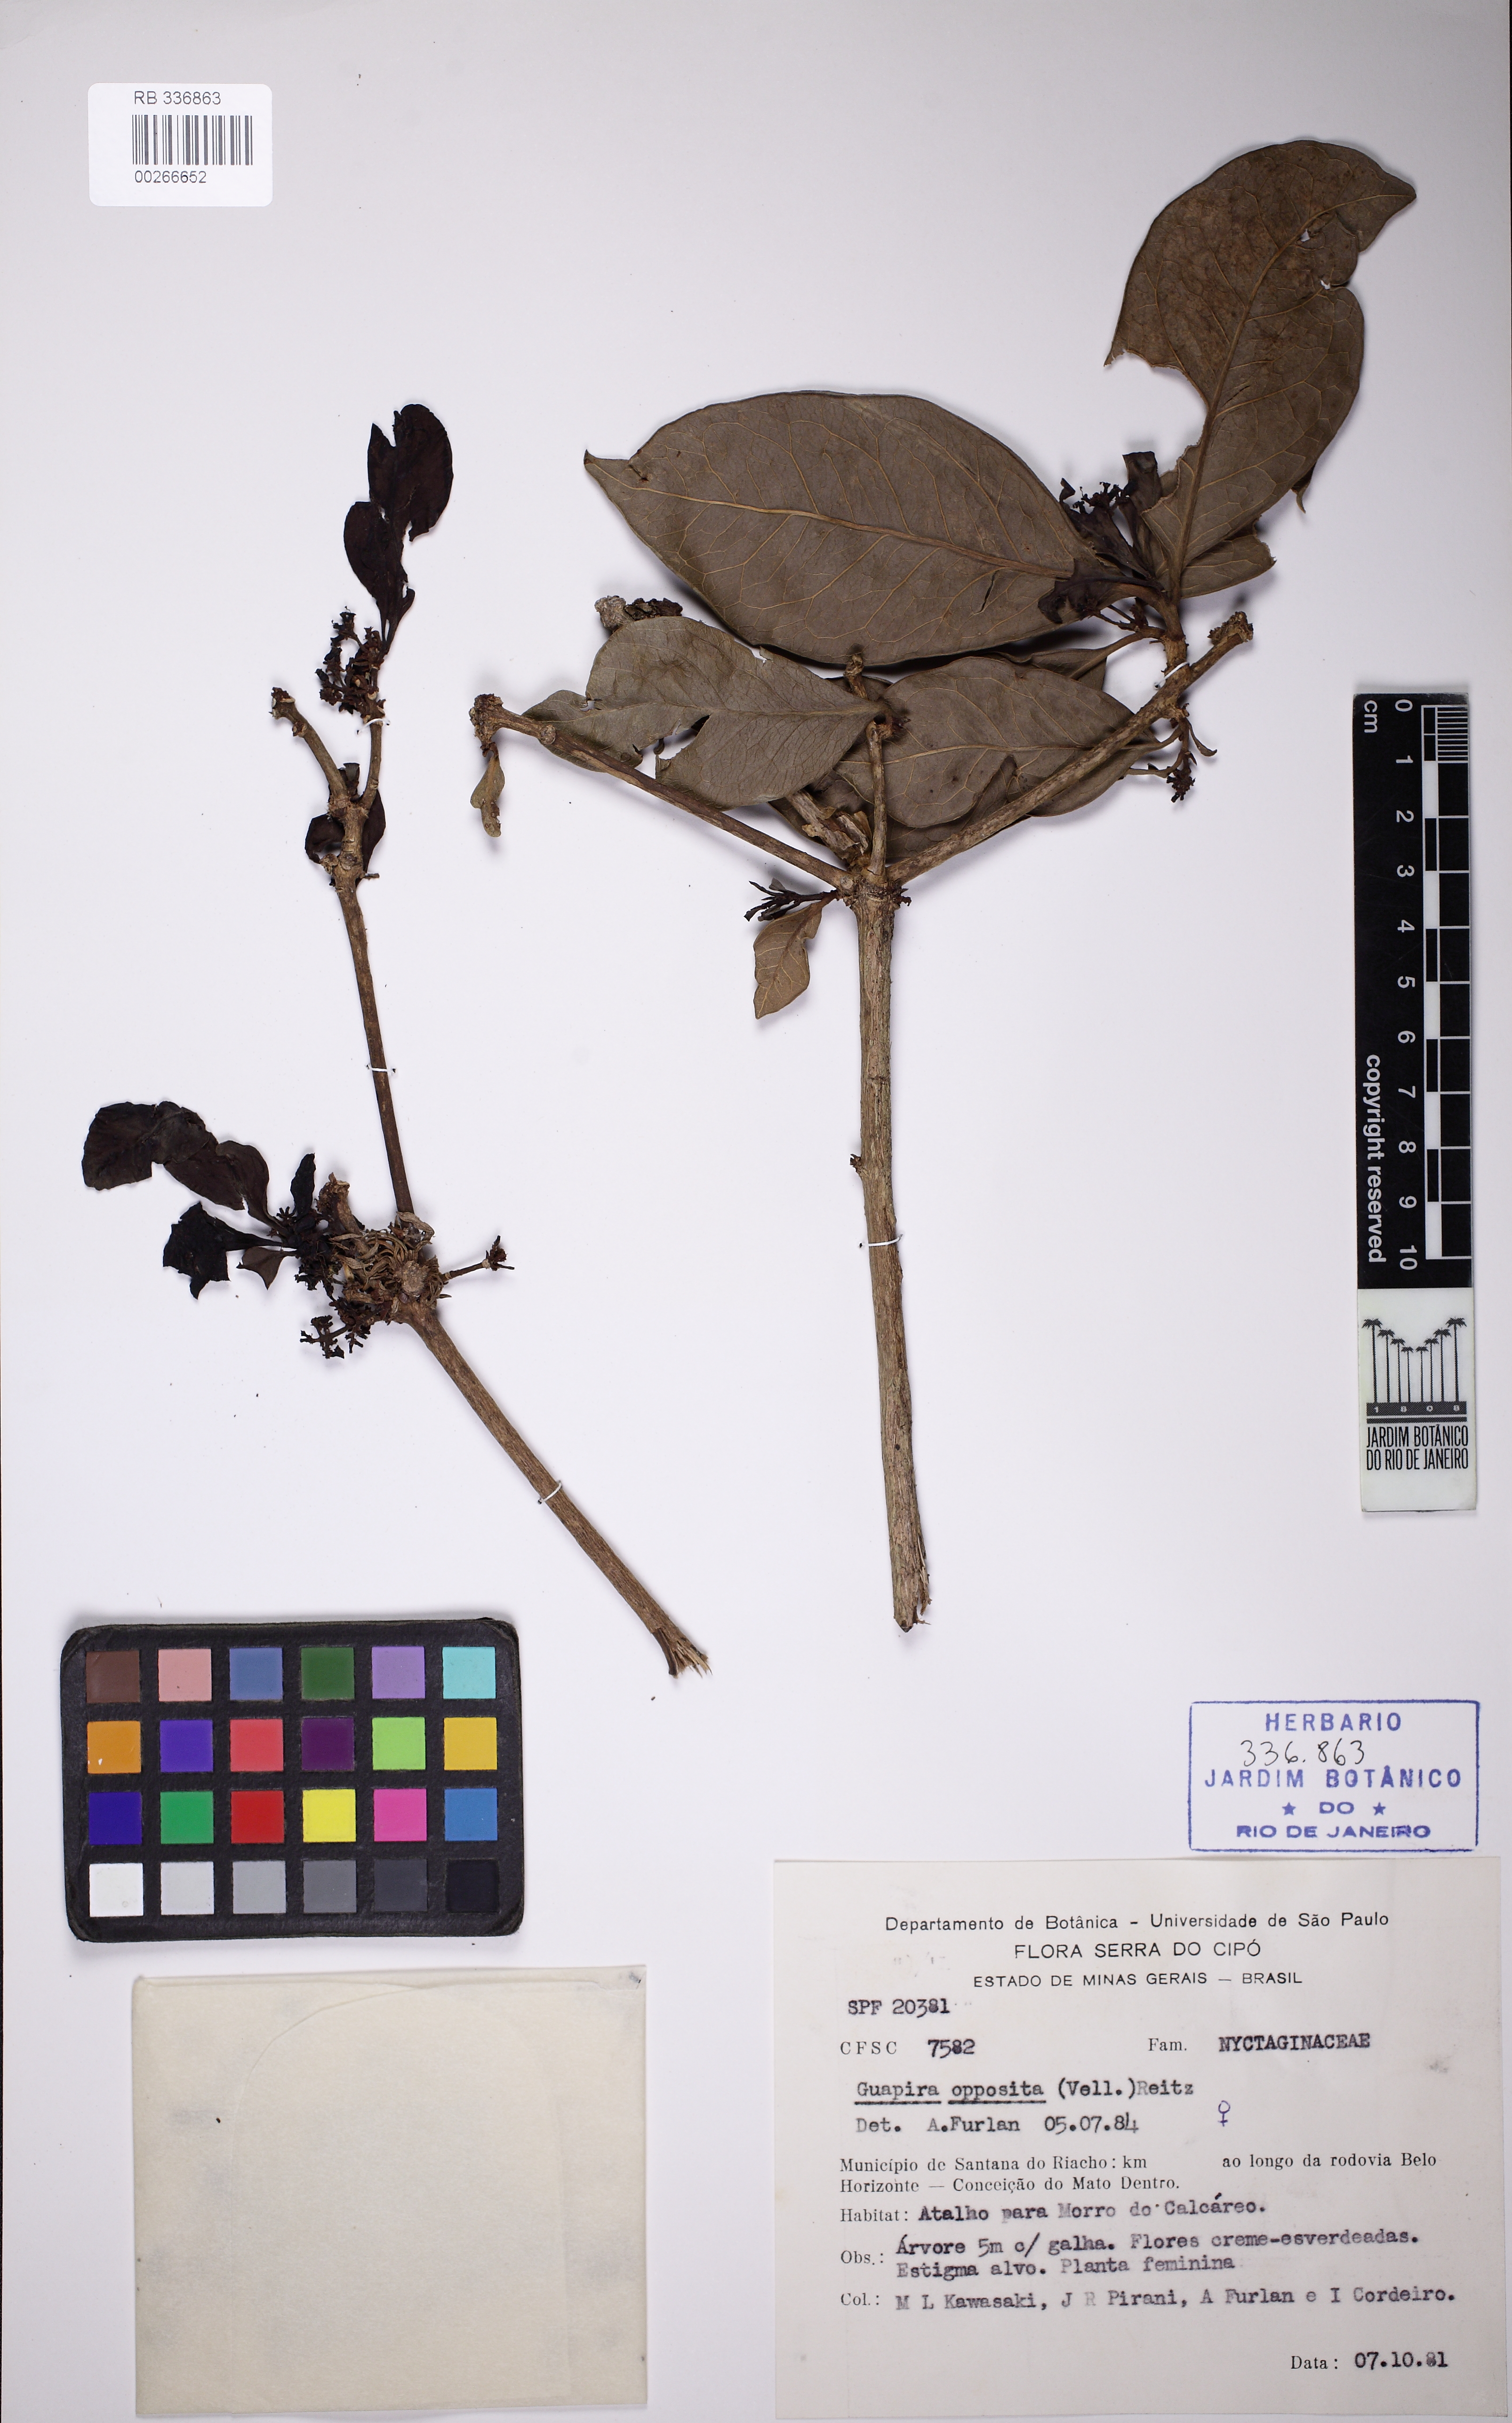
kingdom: Plantae
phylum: Tracheophyta
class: Magnoliopsida
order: Caryophyllales
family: Nyctaginaceae
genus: Guapira
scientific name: Guapira opposita
